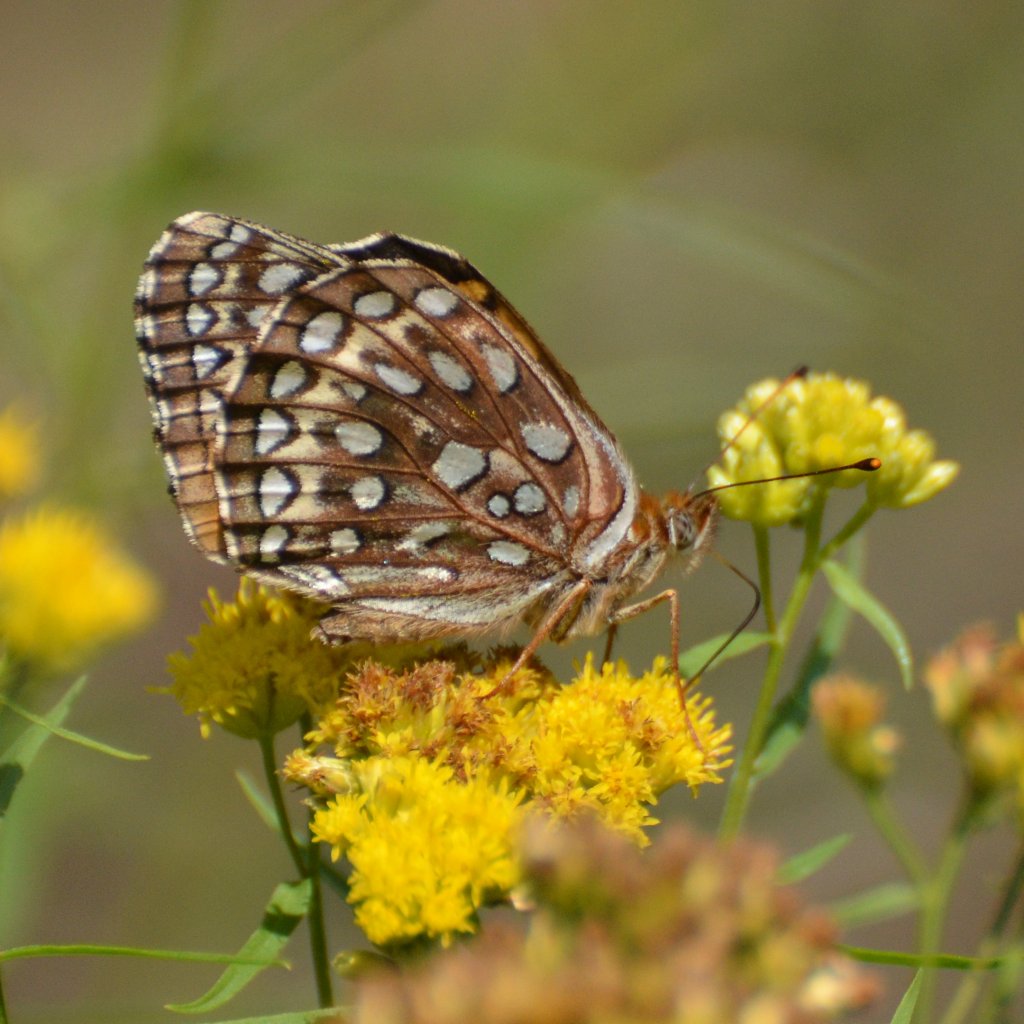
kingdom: Animalia
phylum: Arthropoda
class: Insecta
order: Lepidoptera
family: Nymphalidae
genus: Speyeria
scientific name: Speyeria atlantis
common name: Atlantis Fritillary
